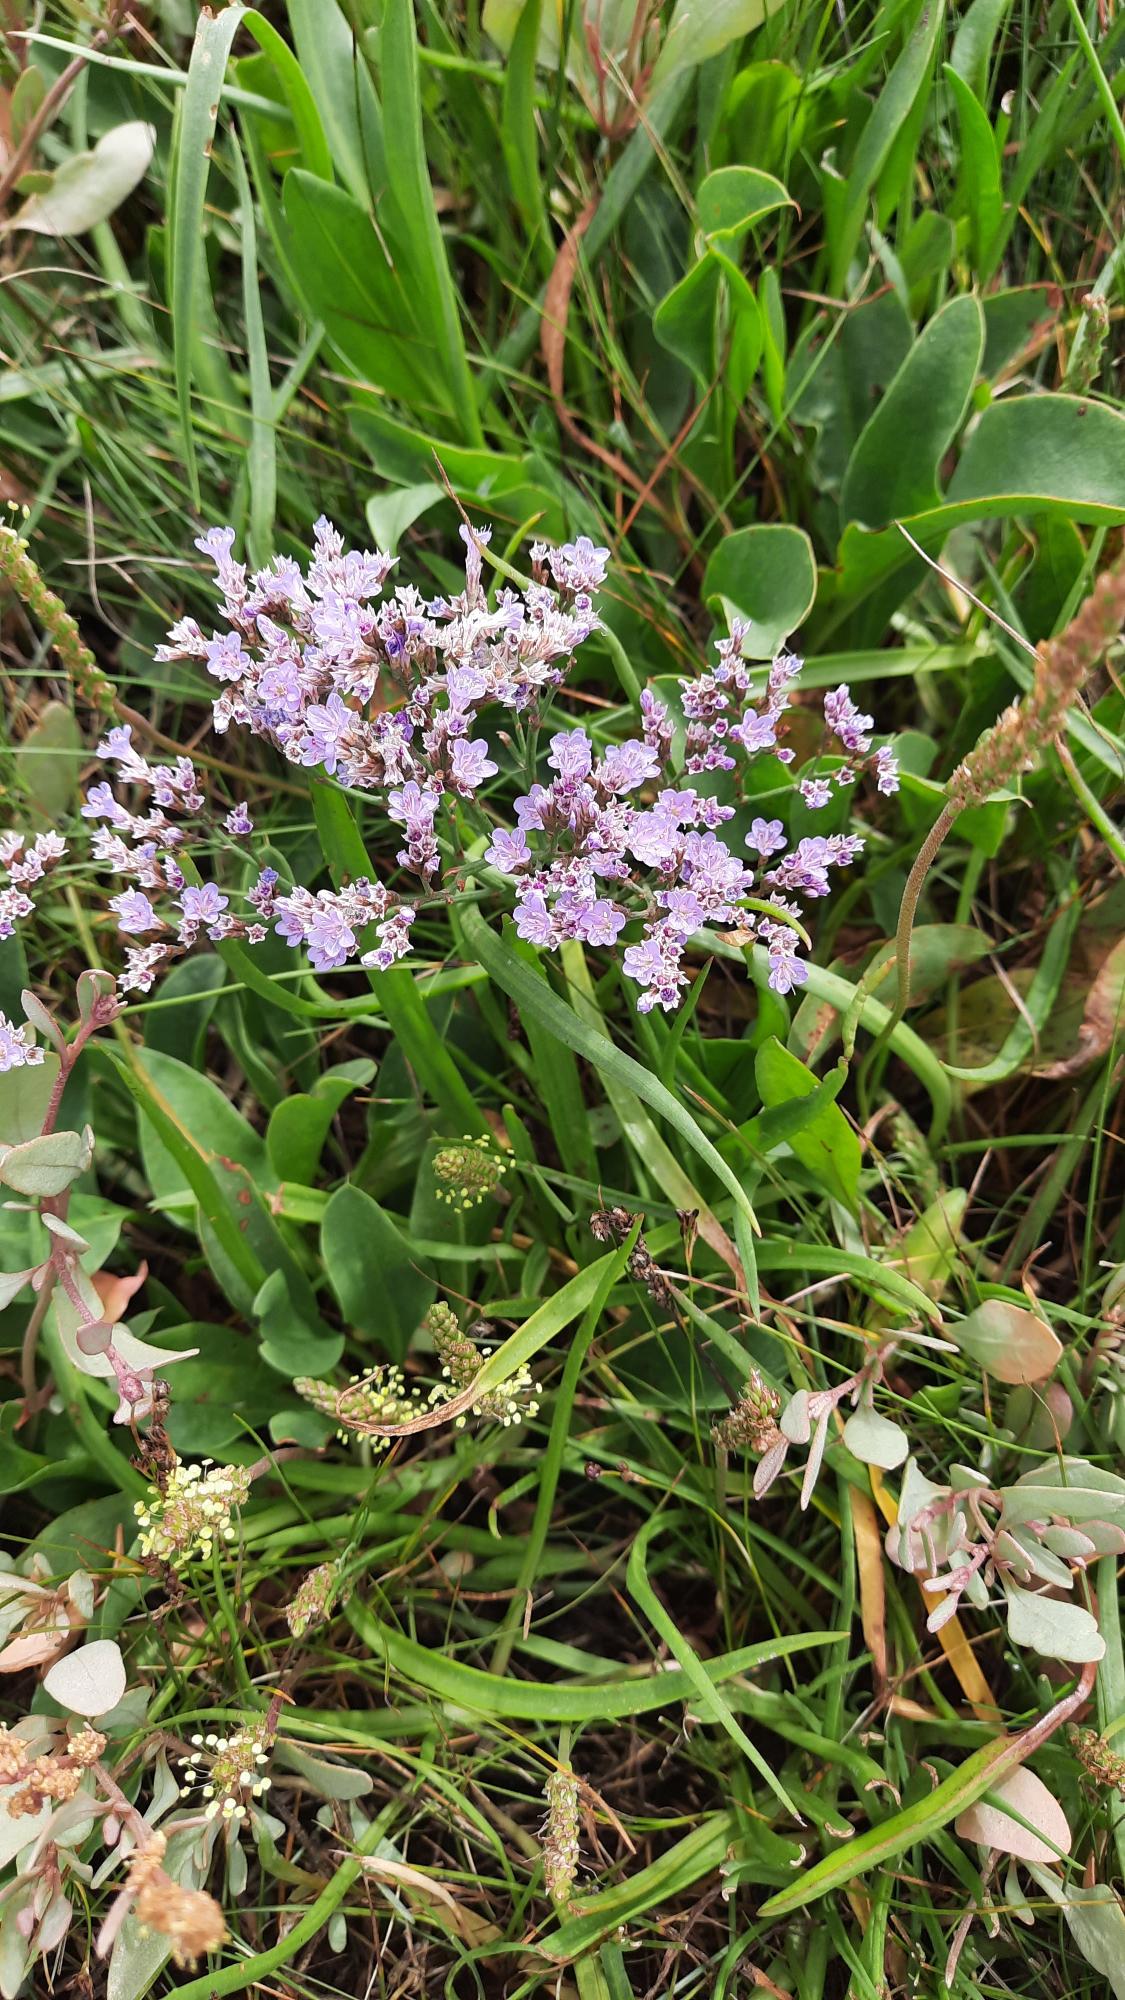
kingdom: Plantae
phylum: Tracheophyta
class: Magnoliopsida
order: Caryophyllales
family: Plumbaginaceae
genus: Limonium
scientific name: Limonium vulgare
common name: Tætblomstret hindebæger
